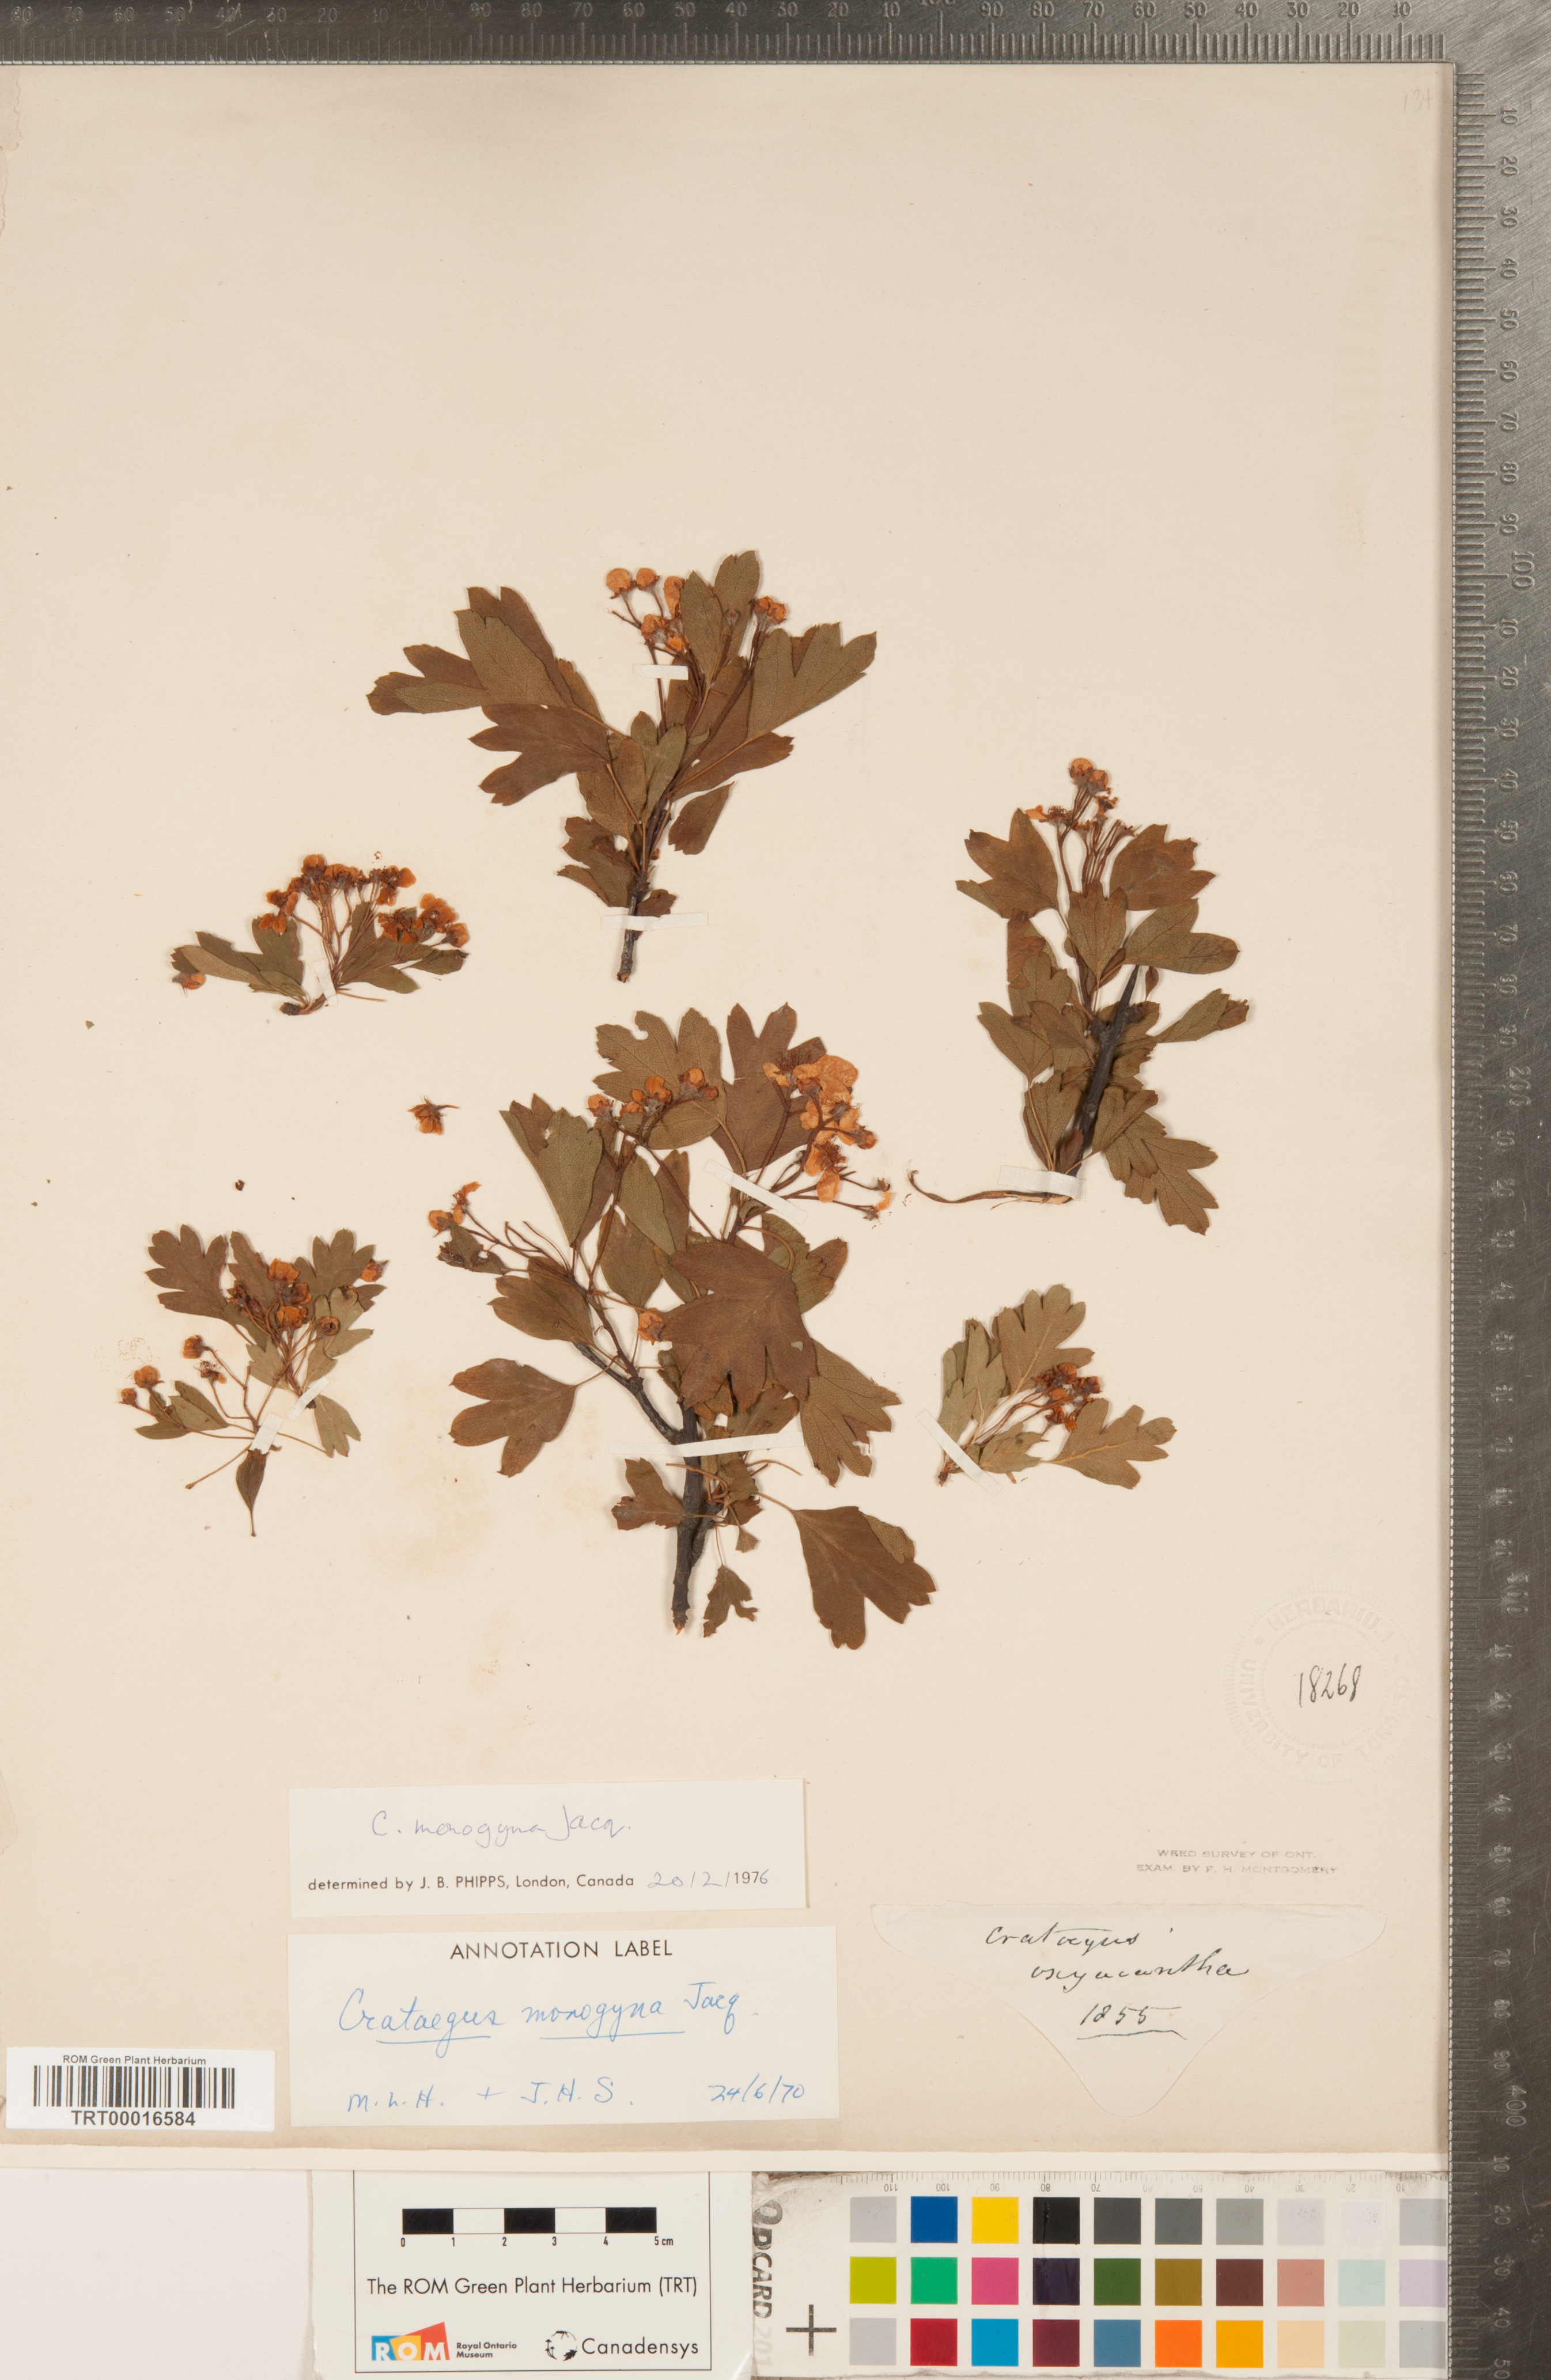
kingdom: Plantae
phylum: Tracheophyta
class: Magnoliopsida
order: Rosales
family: Rosaceae
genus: Crataegus
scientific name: Crataegus monogyna
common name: Hawthorn
